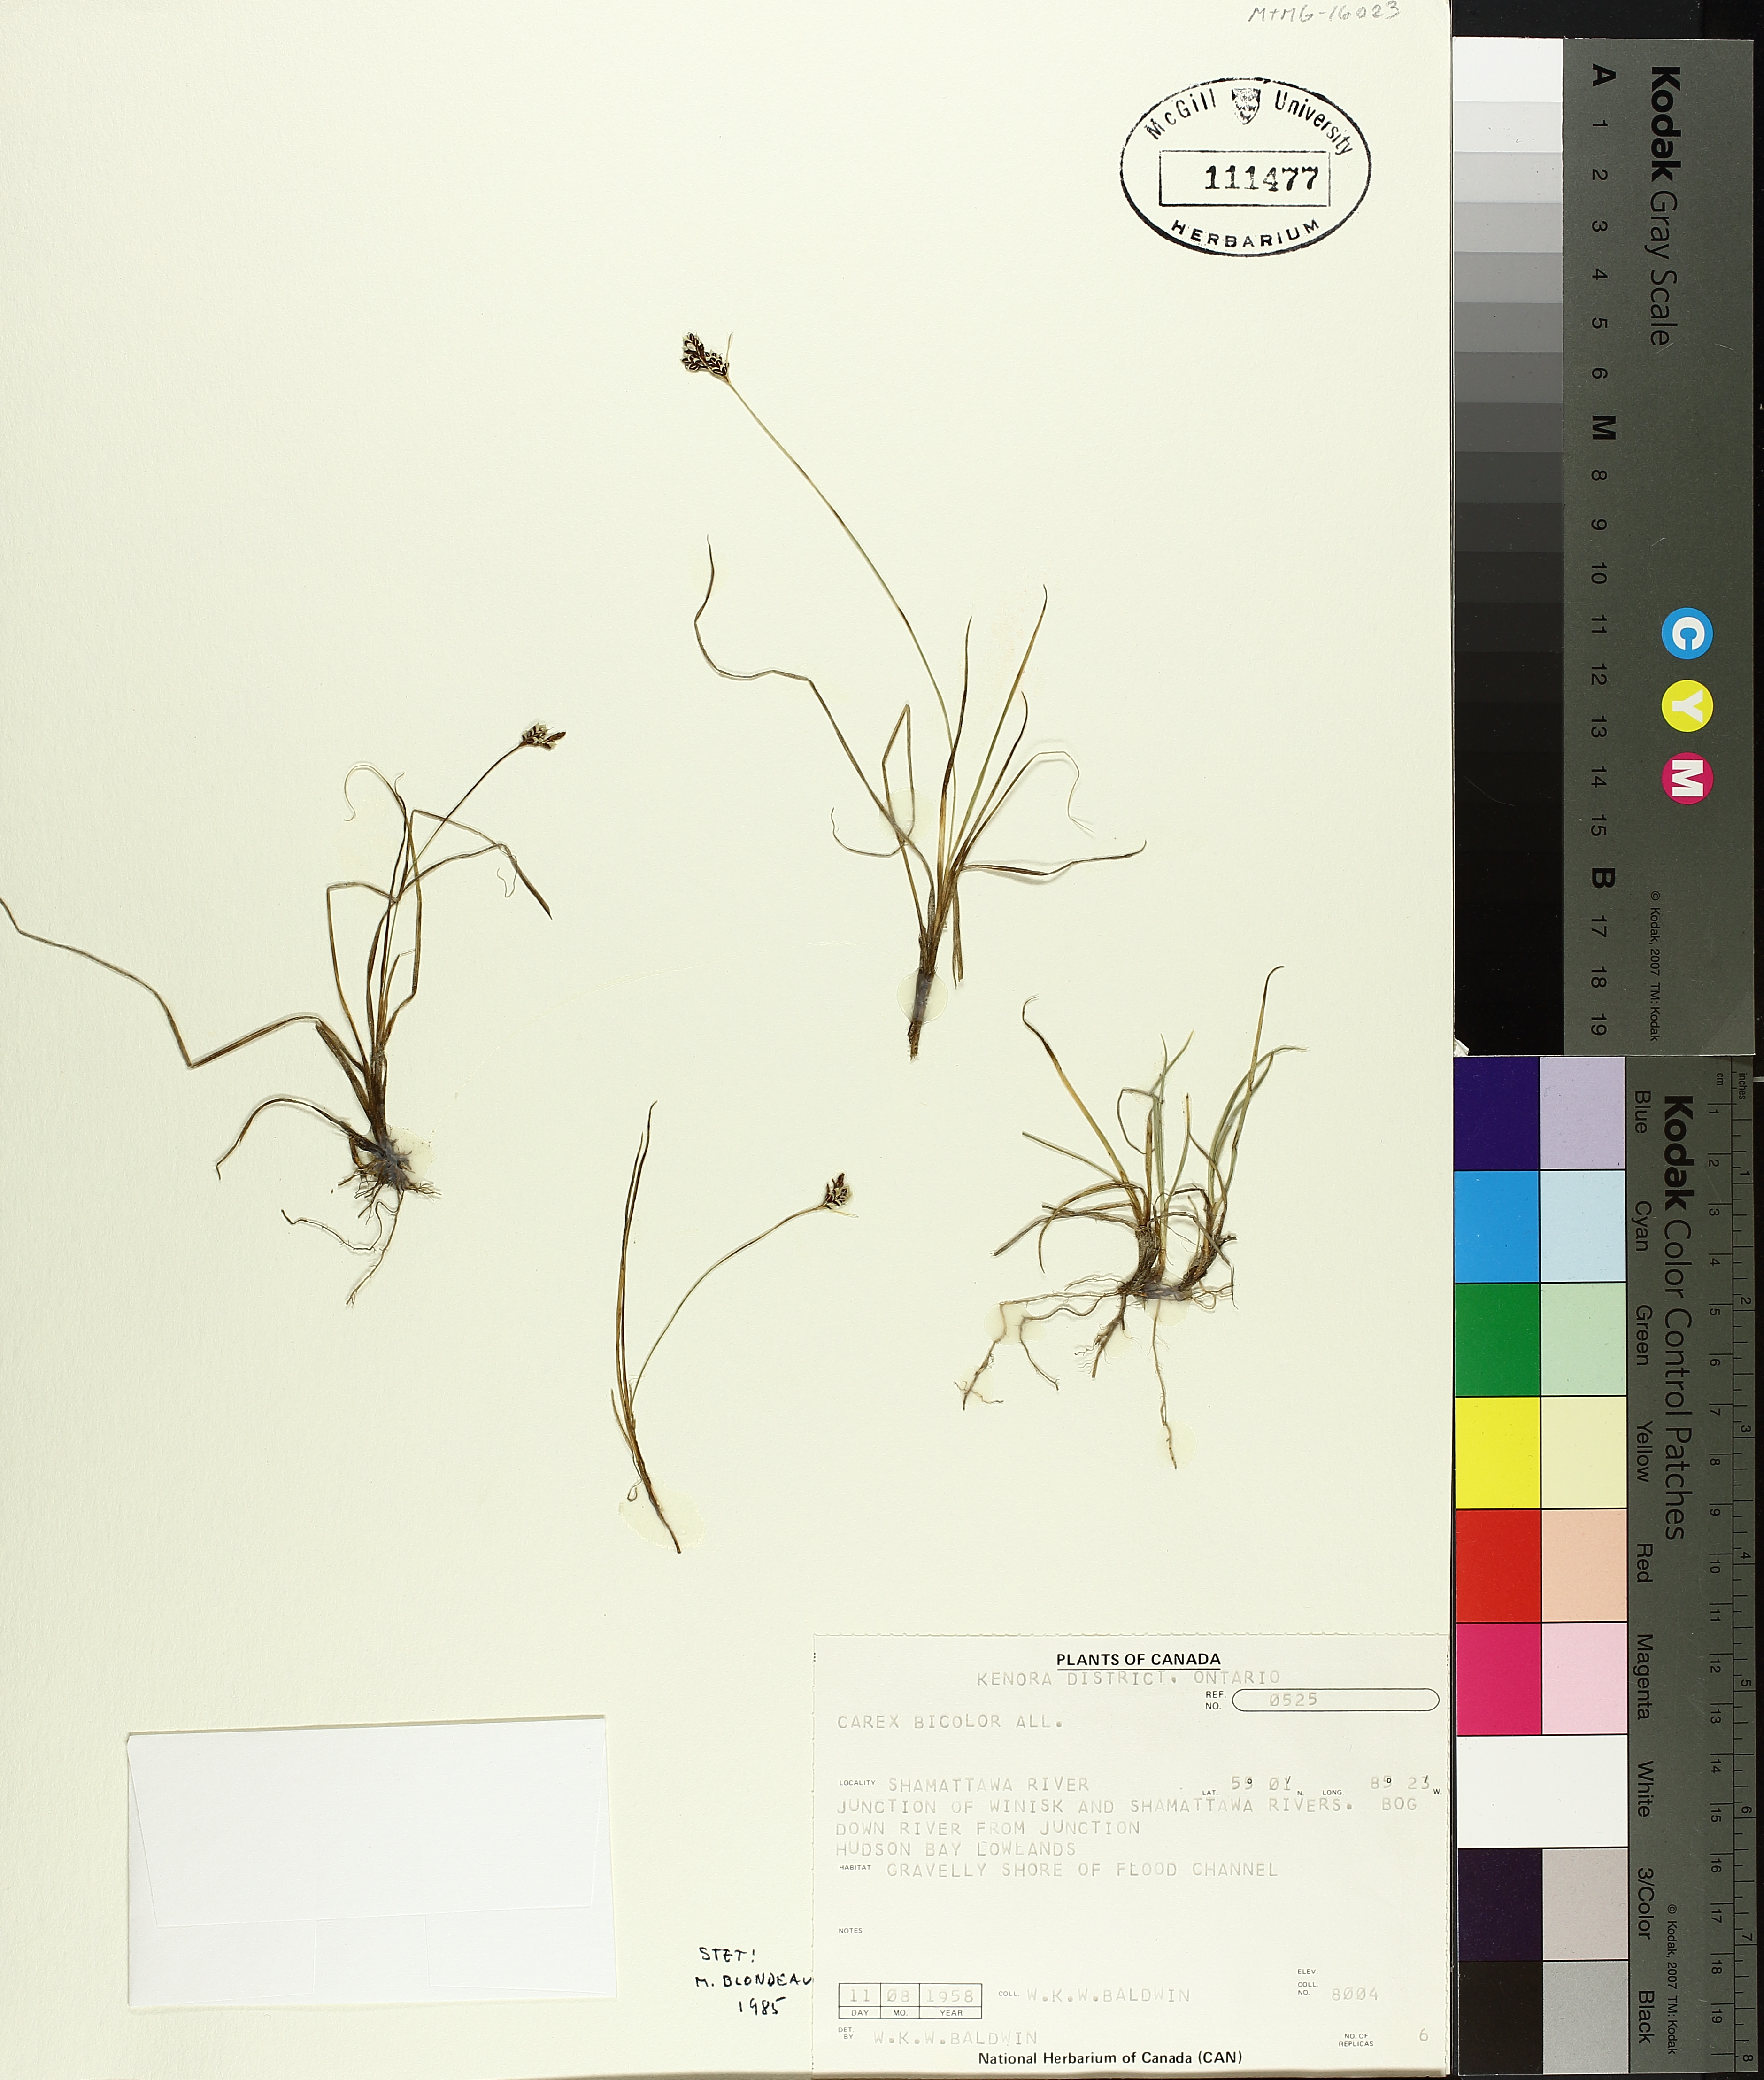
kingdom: Plantae
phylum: Tracheophyta
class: Liliopsida
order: Poales
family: Cyperaceae
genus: Carex
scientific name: Carex bicolor
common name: Bicoloured sedge
